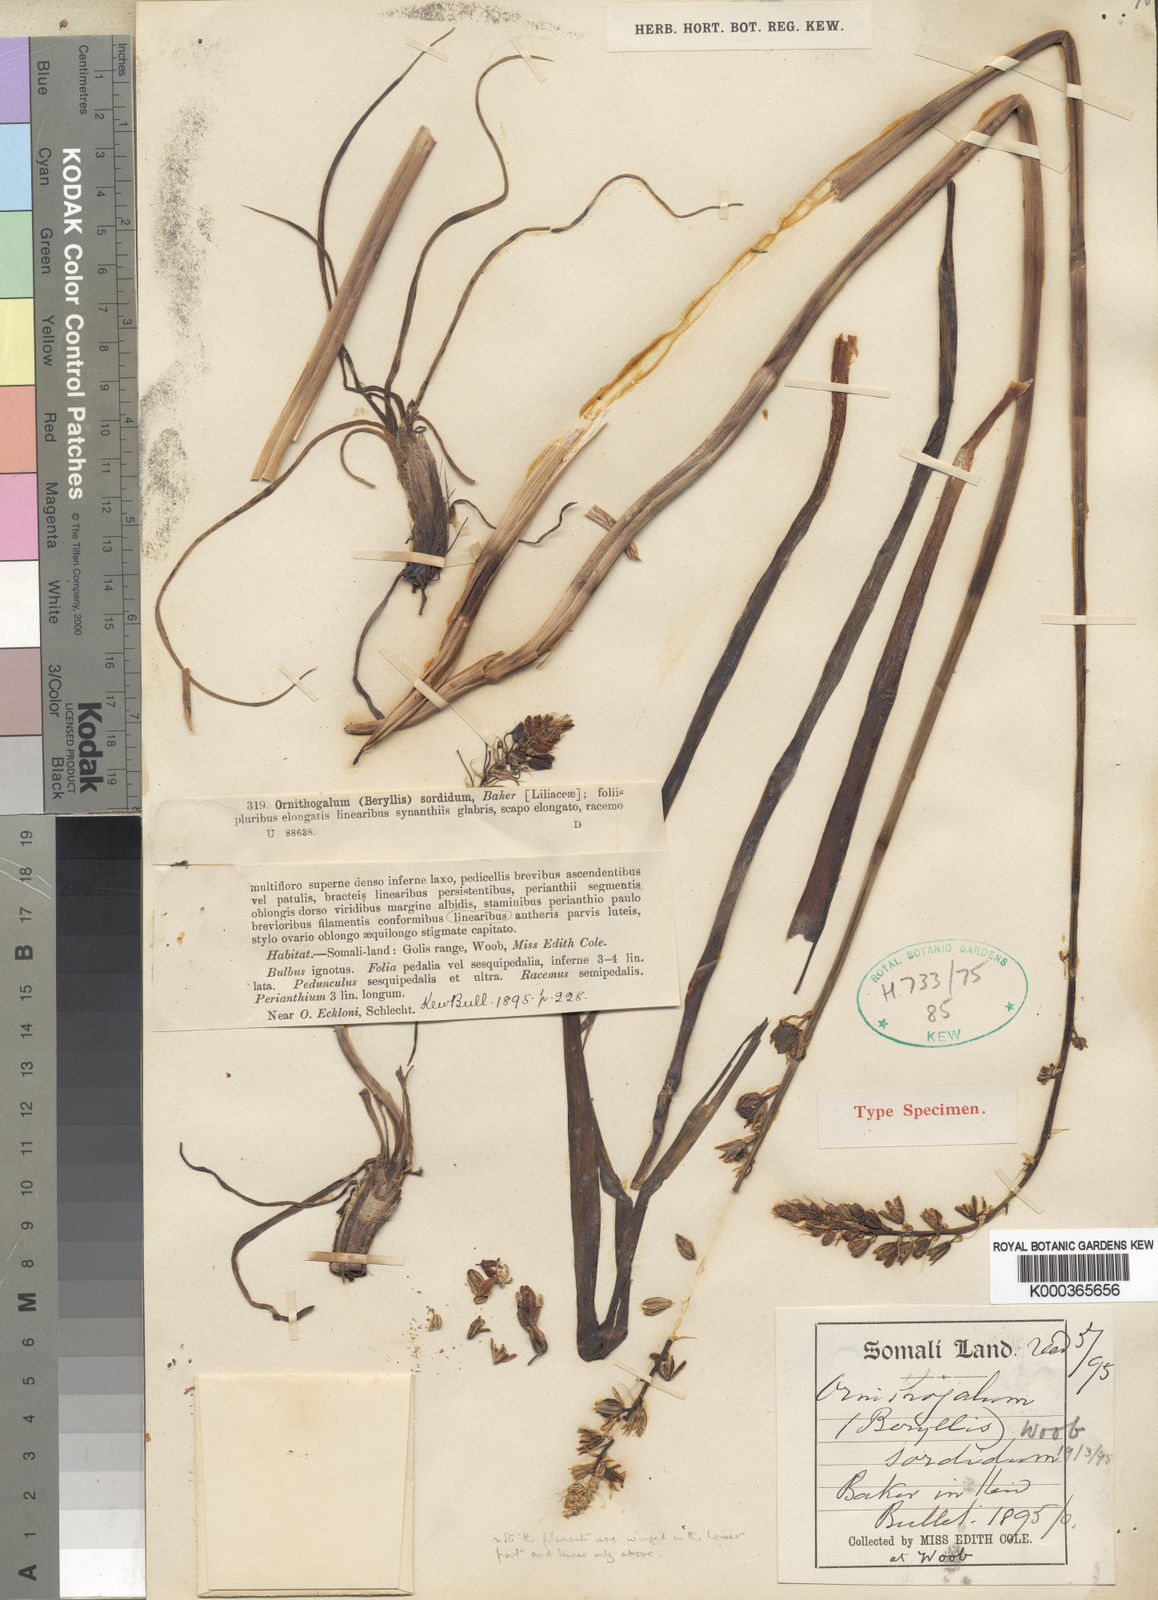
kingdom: Plantae
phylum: Tracheophyta
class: Liliopsida
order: Asparagales
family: Asparagaceae
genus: Albuca
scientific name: Albuca virens
